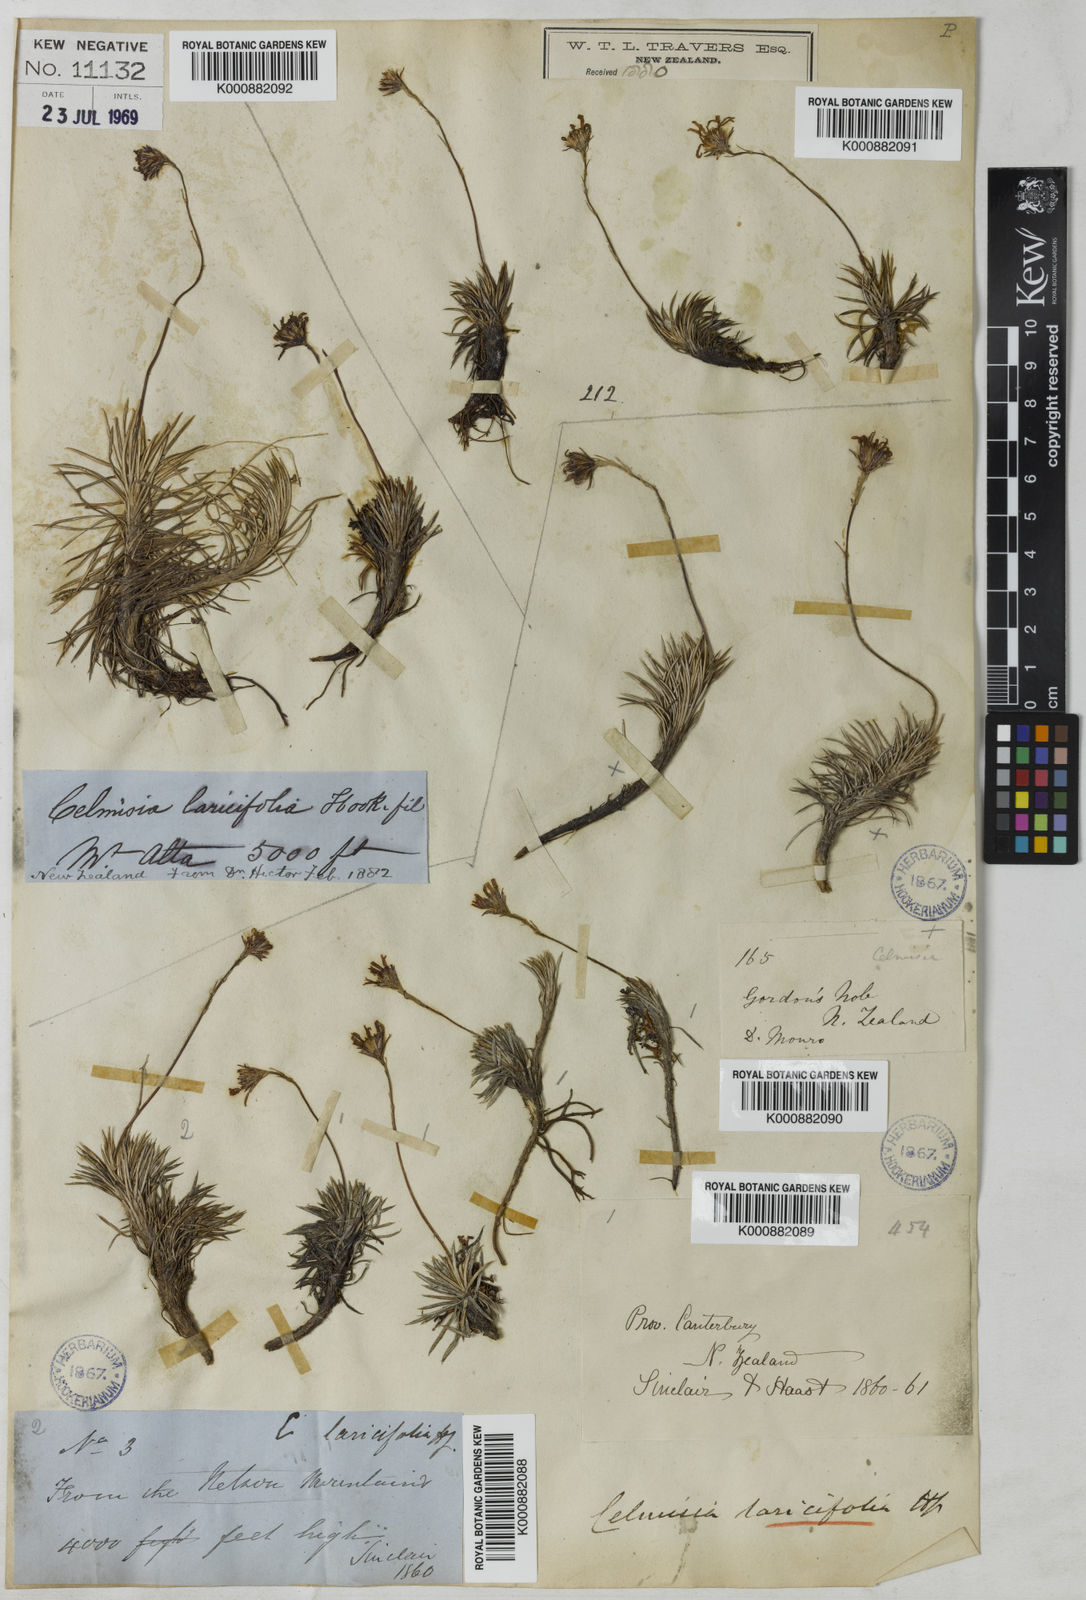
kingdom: Plantae
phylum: Tracheophyta
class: Magnoliopsida
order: Asterales
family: Asteraceae
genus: Celmisia
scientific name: Celmisia laricifolia
